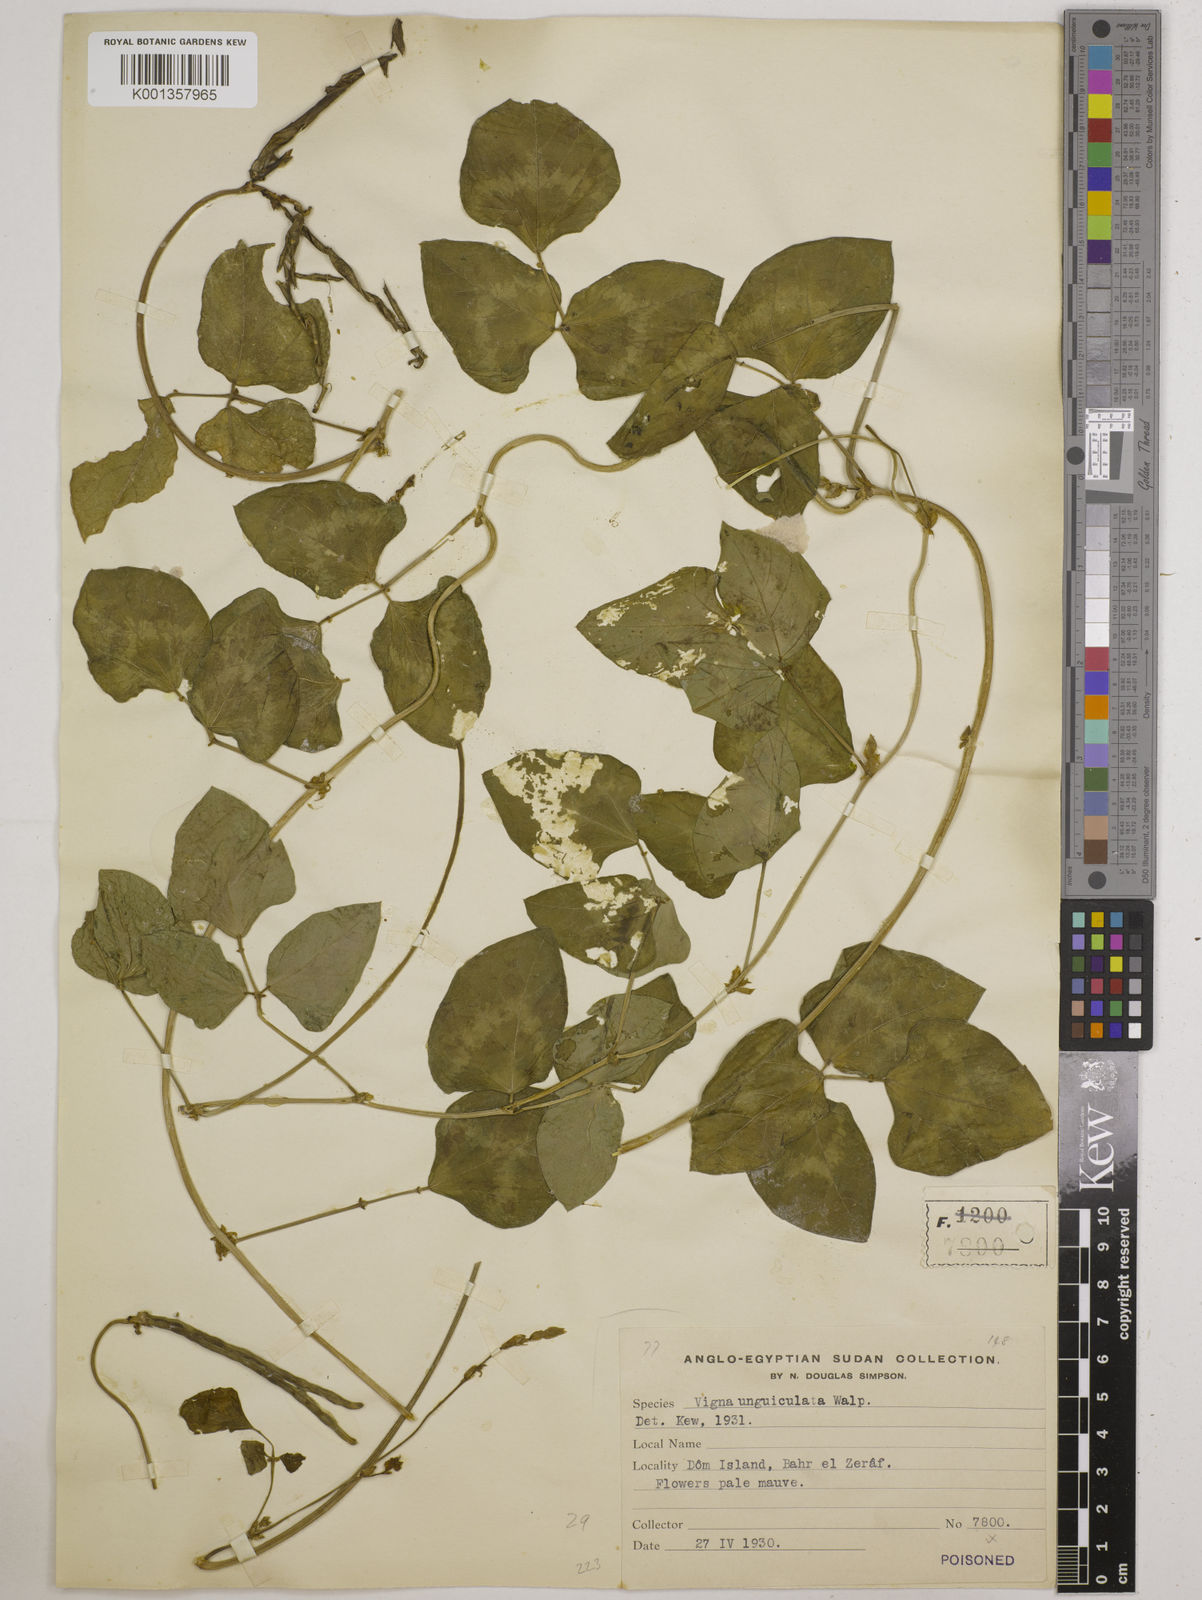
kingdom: Plantae
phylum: Tracheophyta
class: Magnoliopsida
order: Fabales
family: Fabaceae
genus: Vigna
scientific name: Vigna unguiculata
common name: Cowpea
